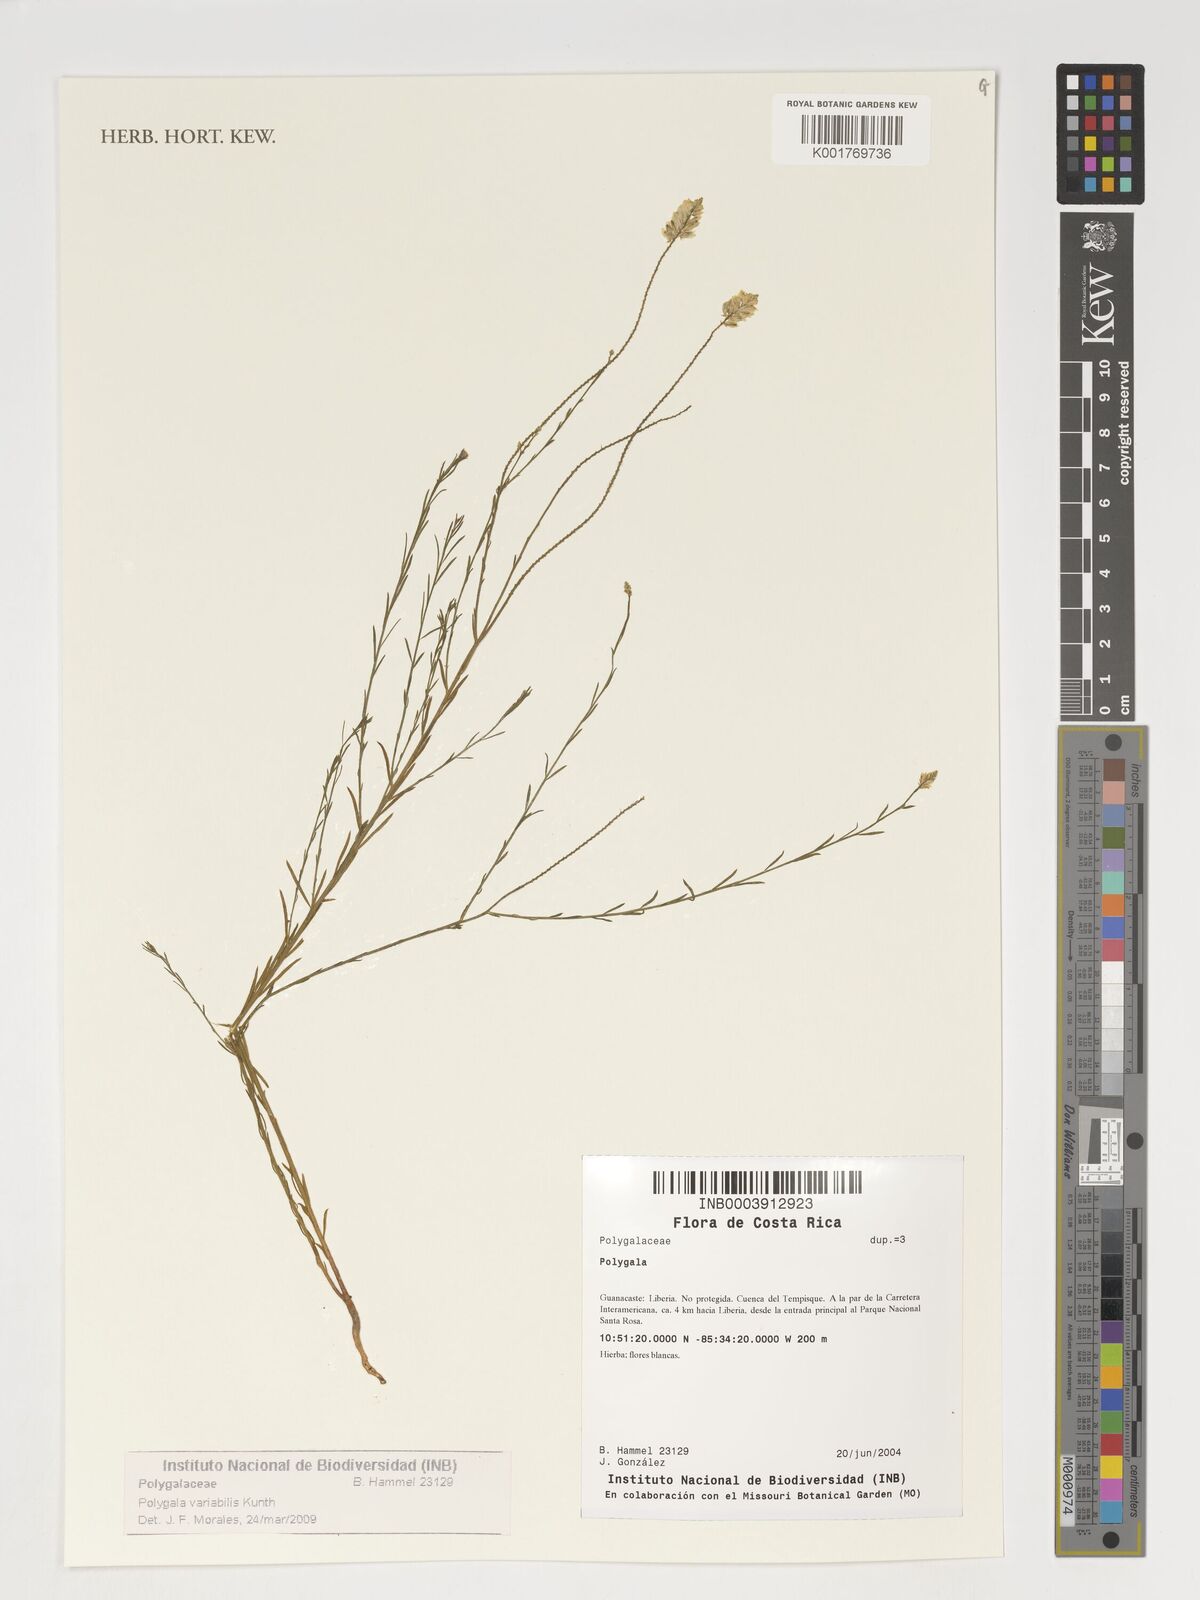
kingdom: Plantae
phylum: Tracheophyta
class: Magnoliopsida
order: Fabales
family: Polygalaceae
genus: Polygala
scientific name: Polygala trichosperma
